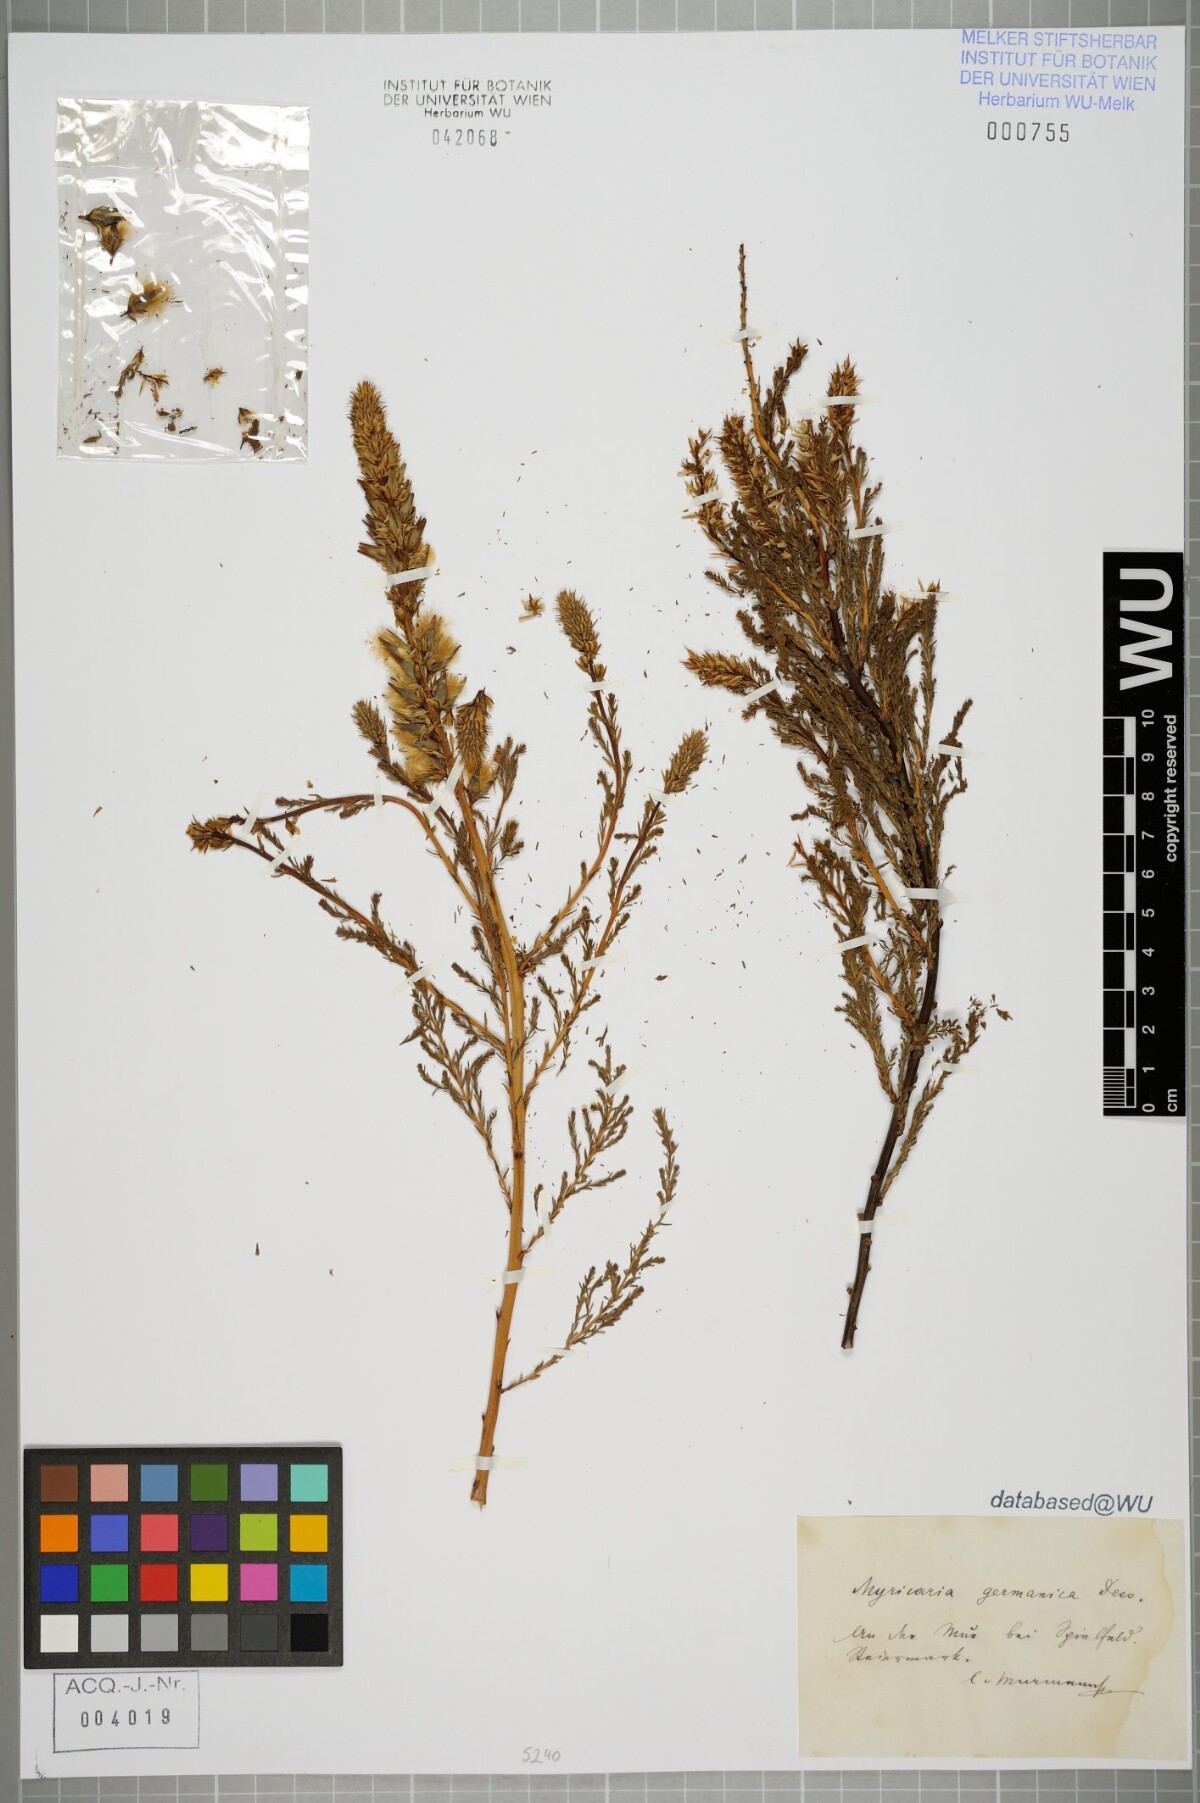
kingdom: Plantae
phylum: Tracheophyta
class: Magnoliopsida
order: Caryophyllales
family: Tamaricaceae
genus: Myricaria
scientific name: Myricaria germanica
